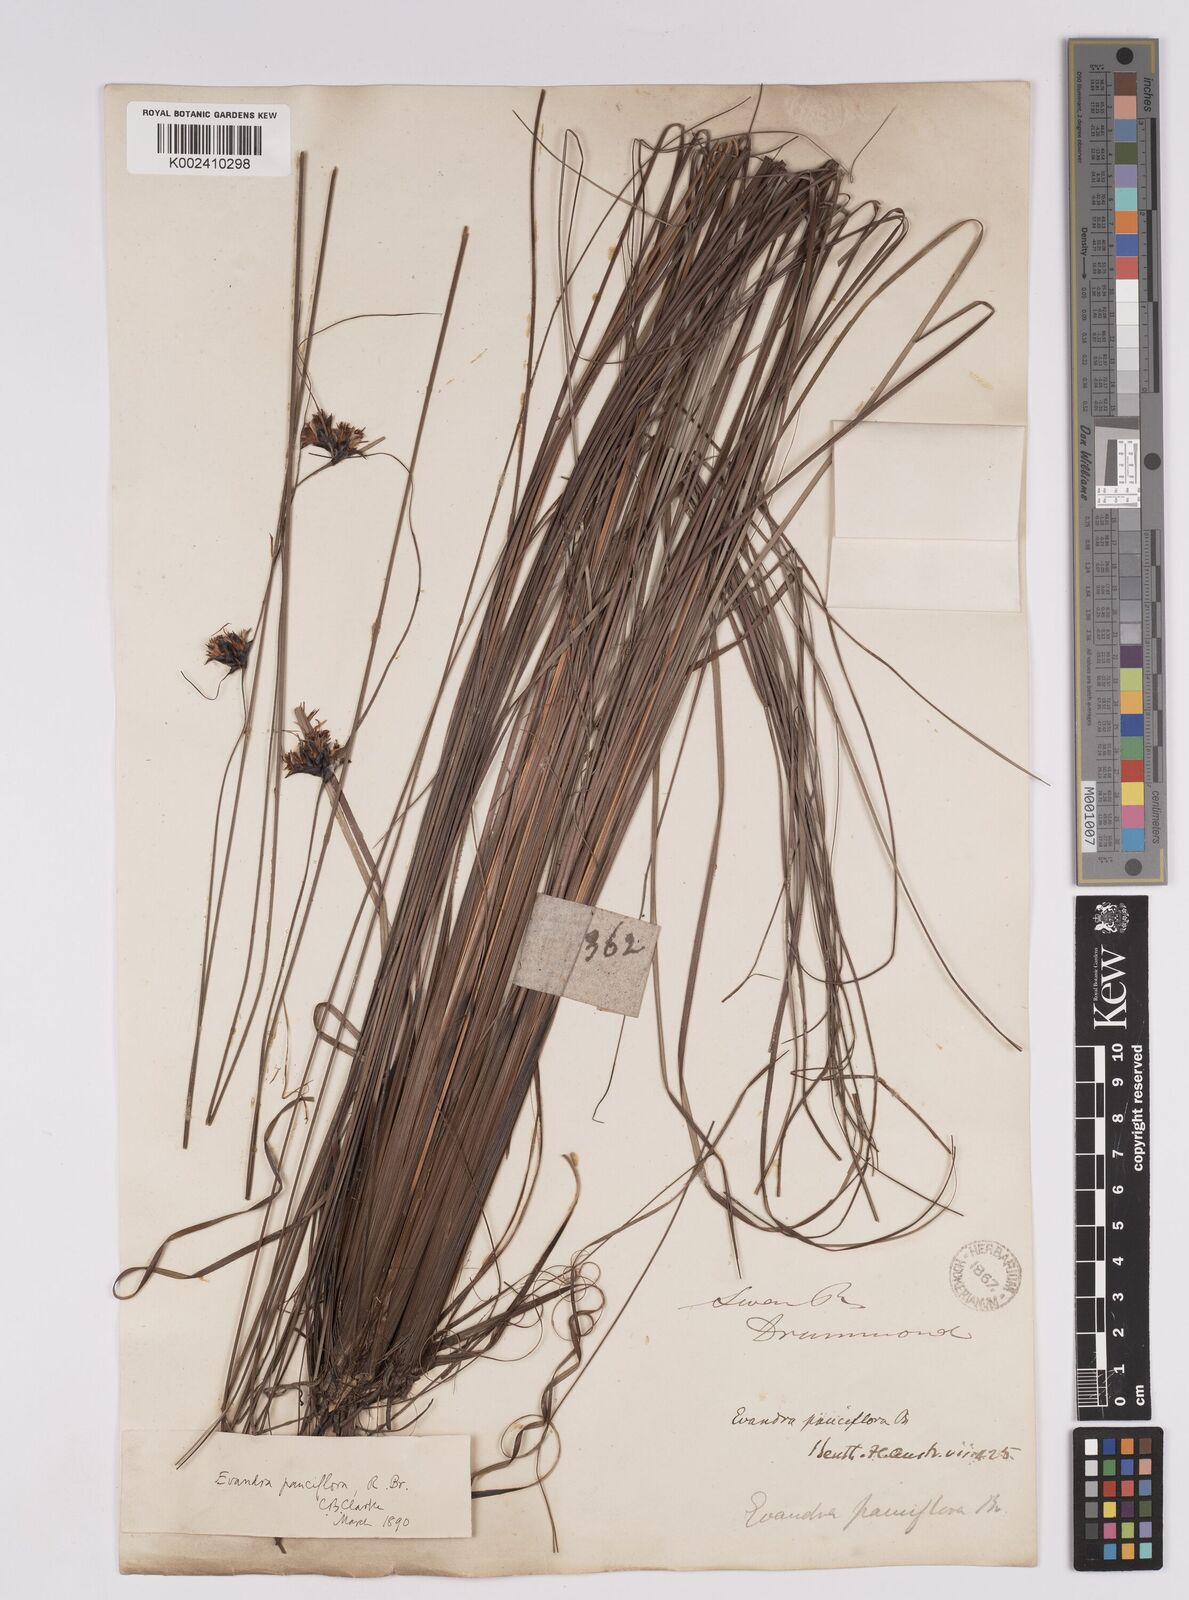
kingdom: Plantae
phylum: Tracheophyta
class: Liliopsida
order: Poales
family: Cyperaceae
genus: Evandra
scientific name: Evandra pauciflora
